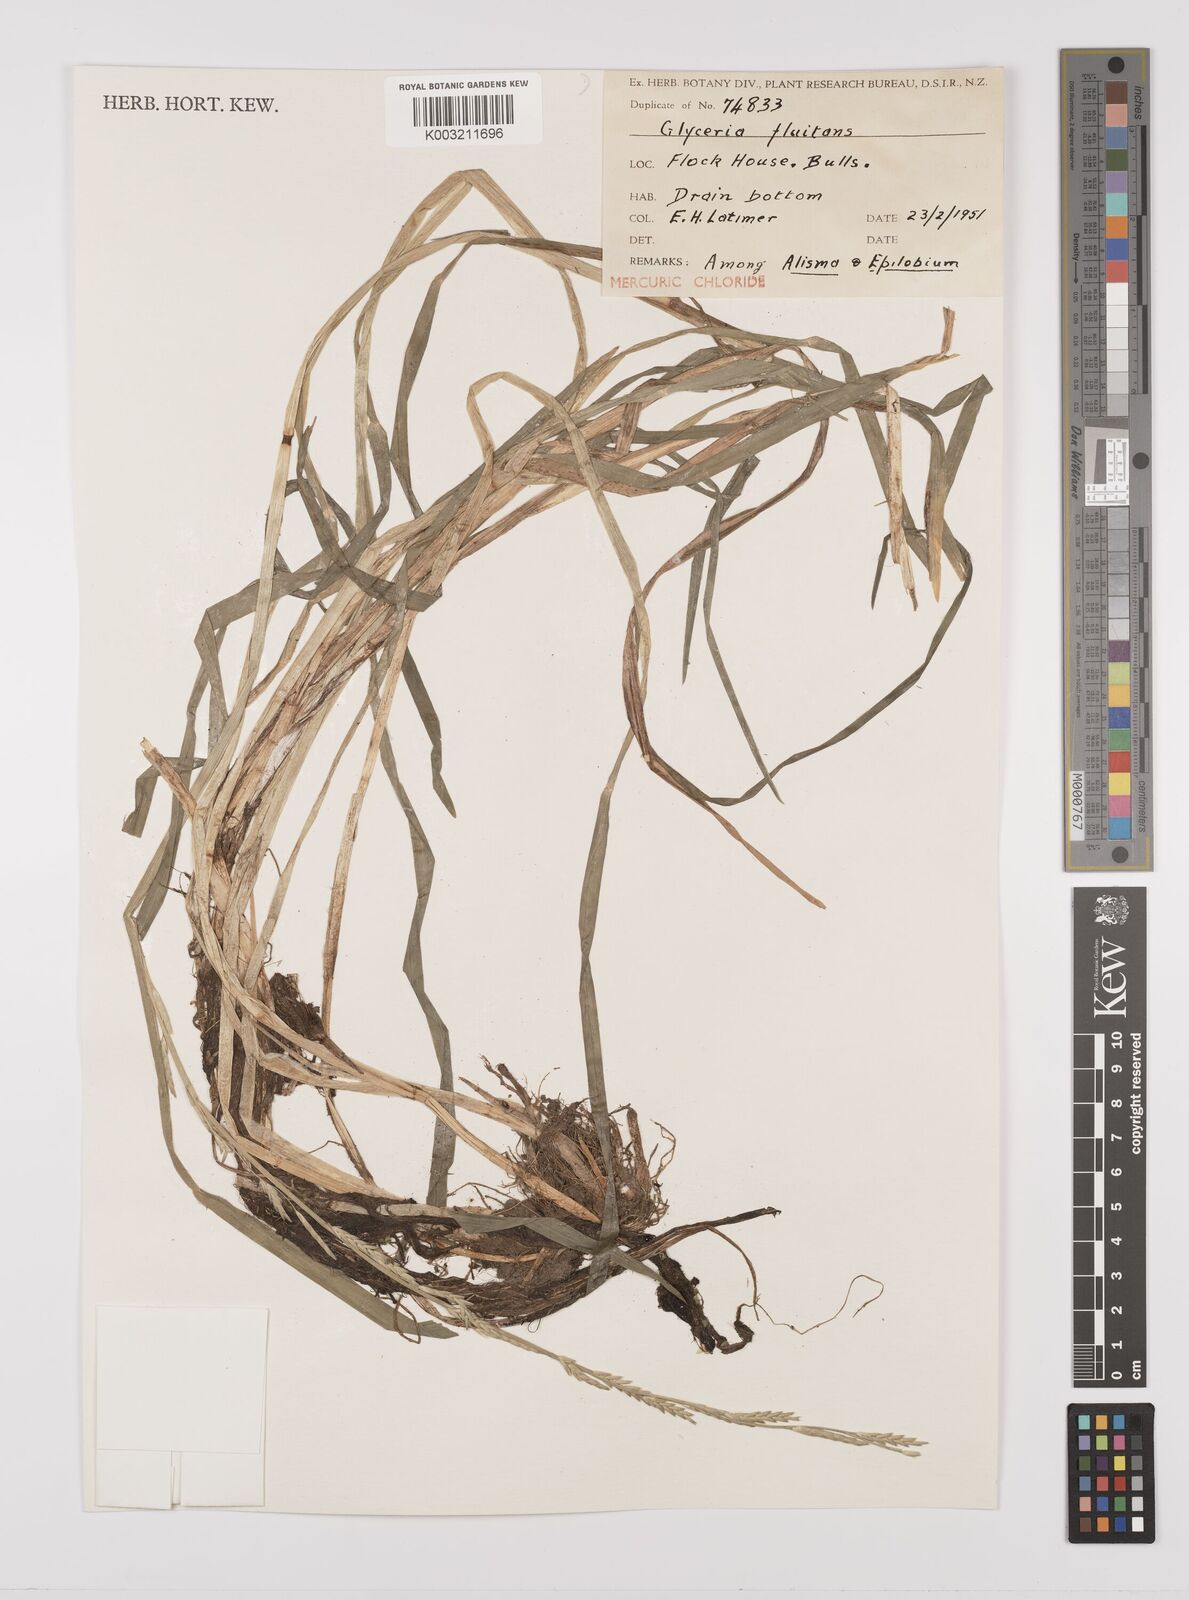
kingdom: Plantae
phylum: Tracheophyta
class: Liliopsida
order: Poales
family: Poaceae
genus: Glyceria
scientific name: Glyceria fluitans
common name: Floating sweet-grass
